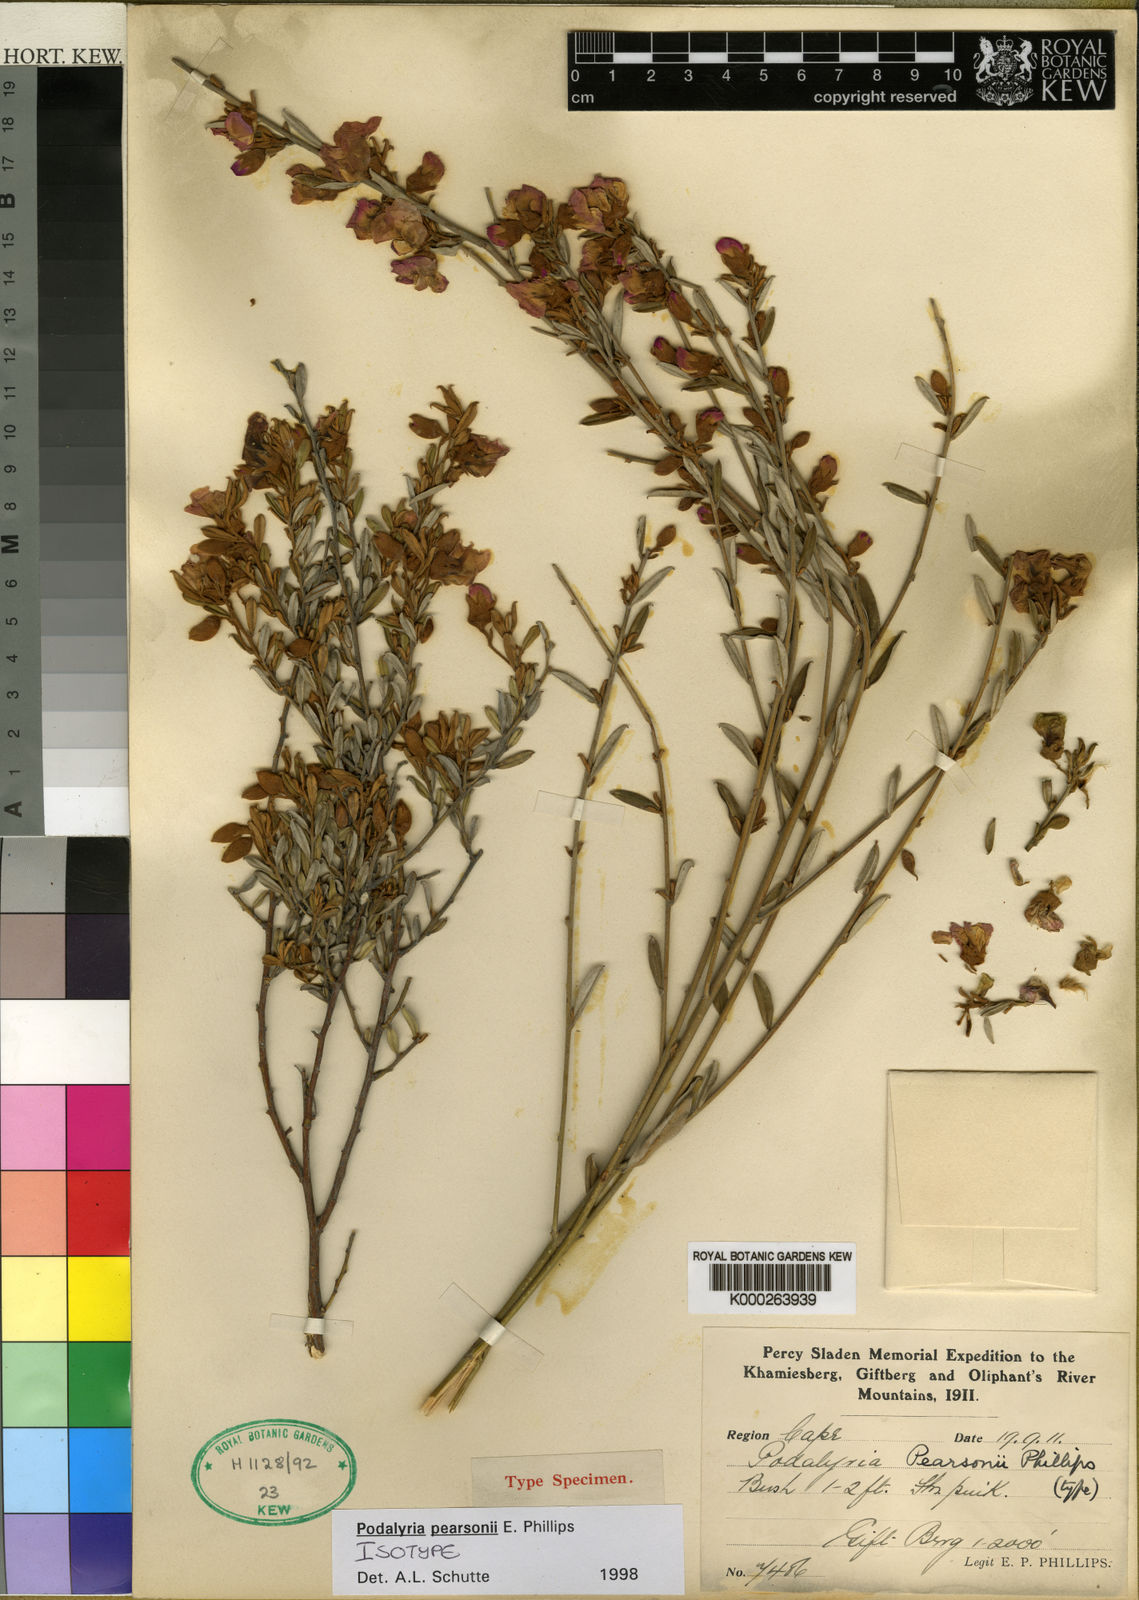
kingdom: Plantae
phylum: Tracheophyta
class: Magnoliopsida
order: Fabales
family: Fabaceae
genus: Podalyria
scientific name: Podalyria pearsonii
